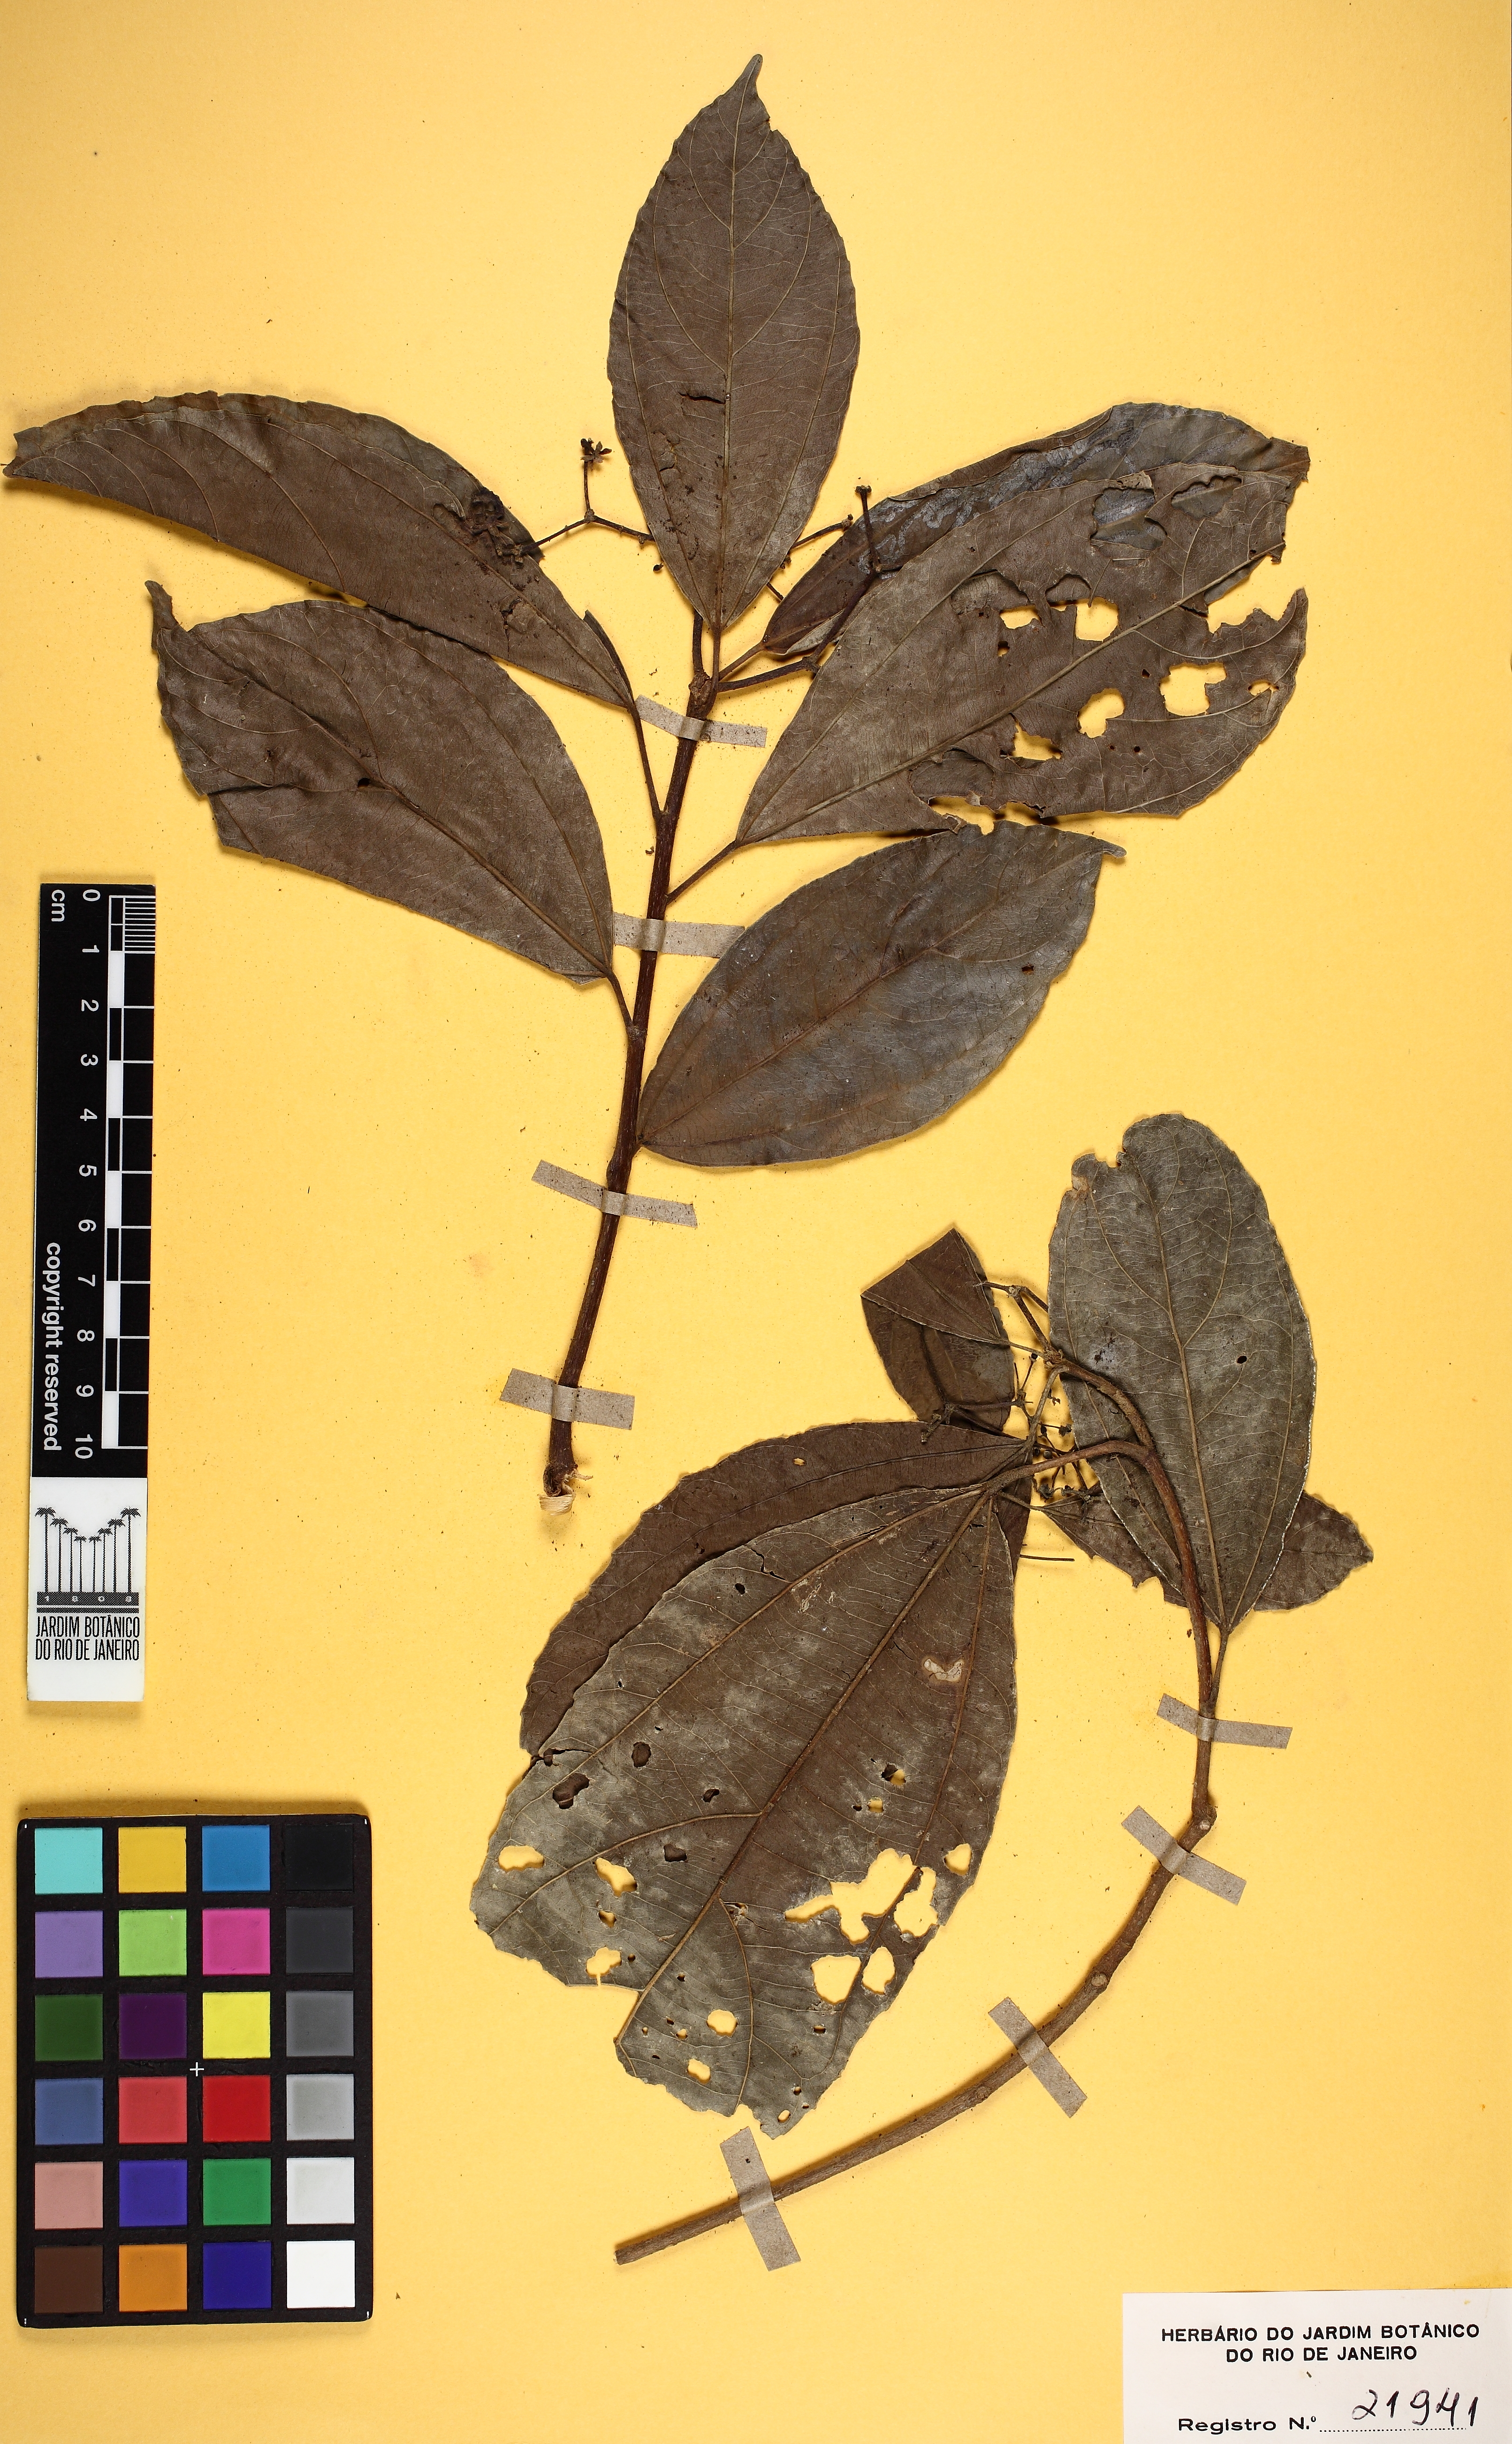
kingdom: Plantae
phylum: Tracheophyta
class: Magnoliopsida
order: Malpighiales
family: Salicaceae
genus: Hasseltia
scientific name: Hasseltia floribunda
